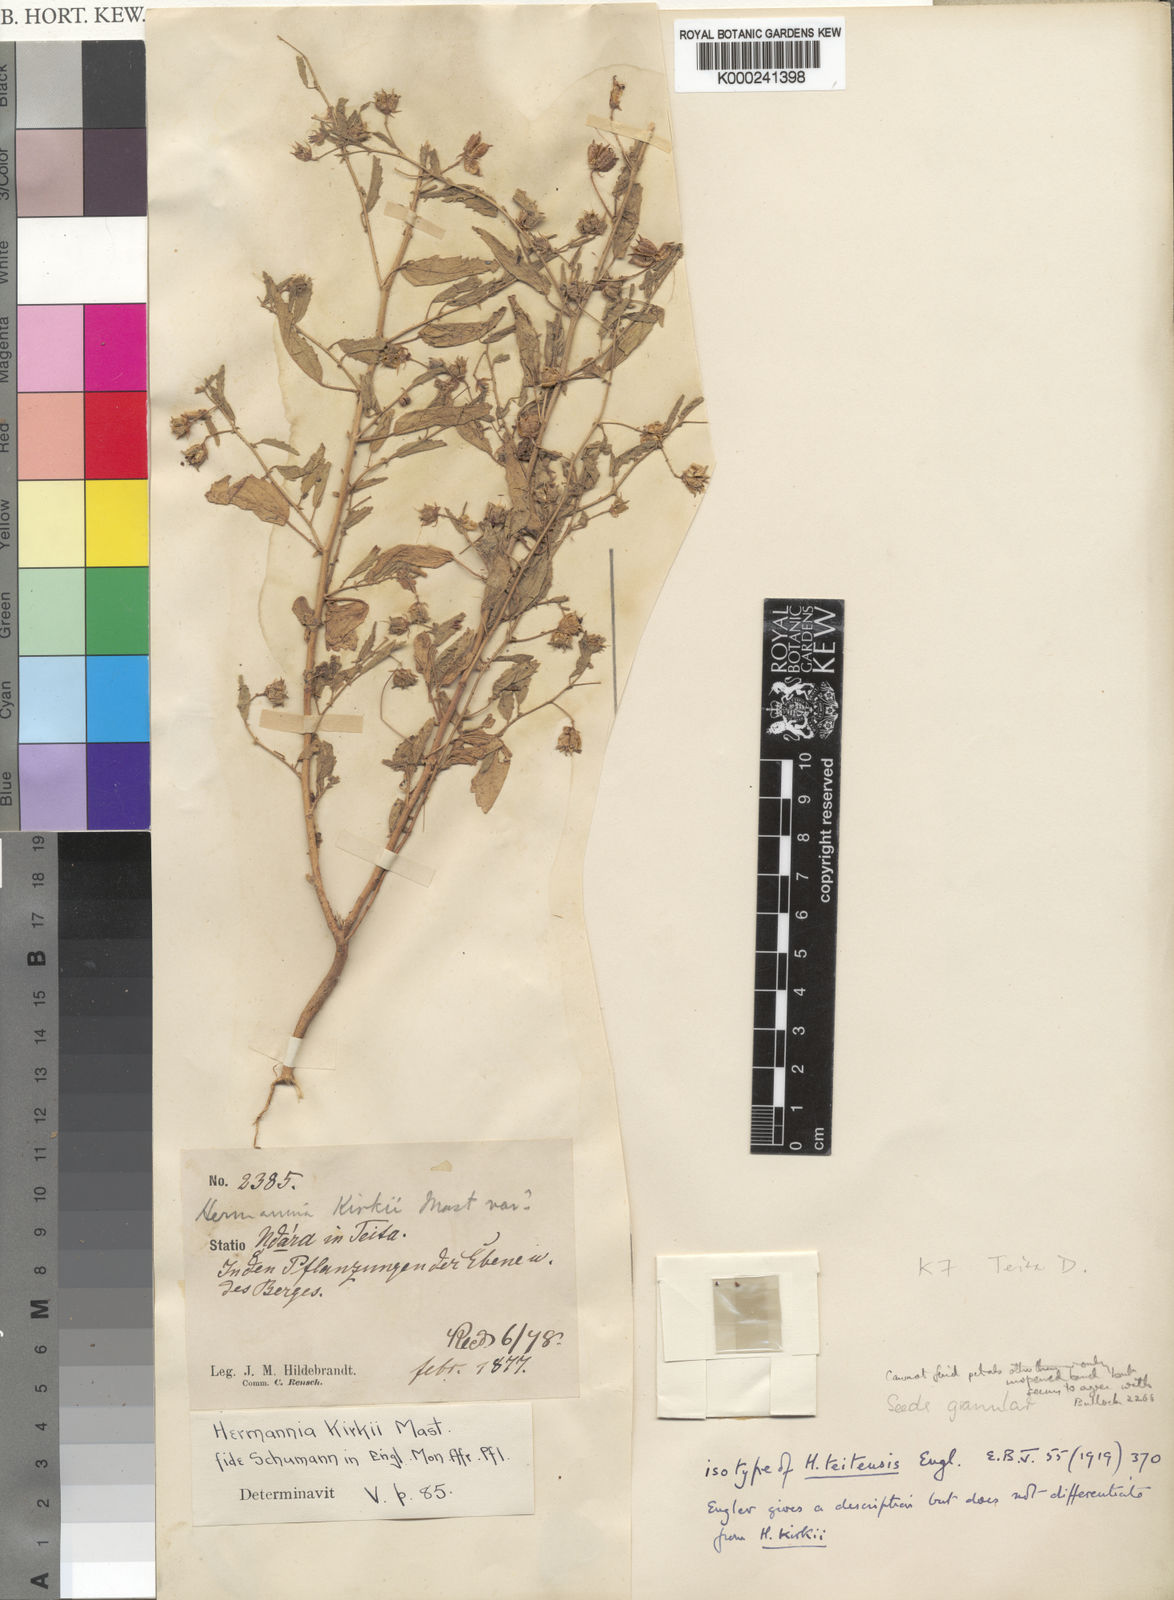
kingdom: Plantae
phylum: Tracheophyta
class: Magnoliopsida
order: Malvales
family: Malvaceae
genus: Hermannia
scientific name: Hermannia glanduligera
